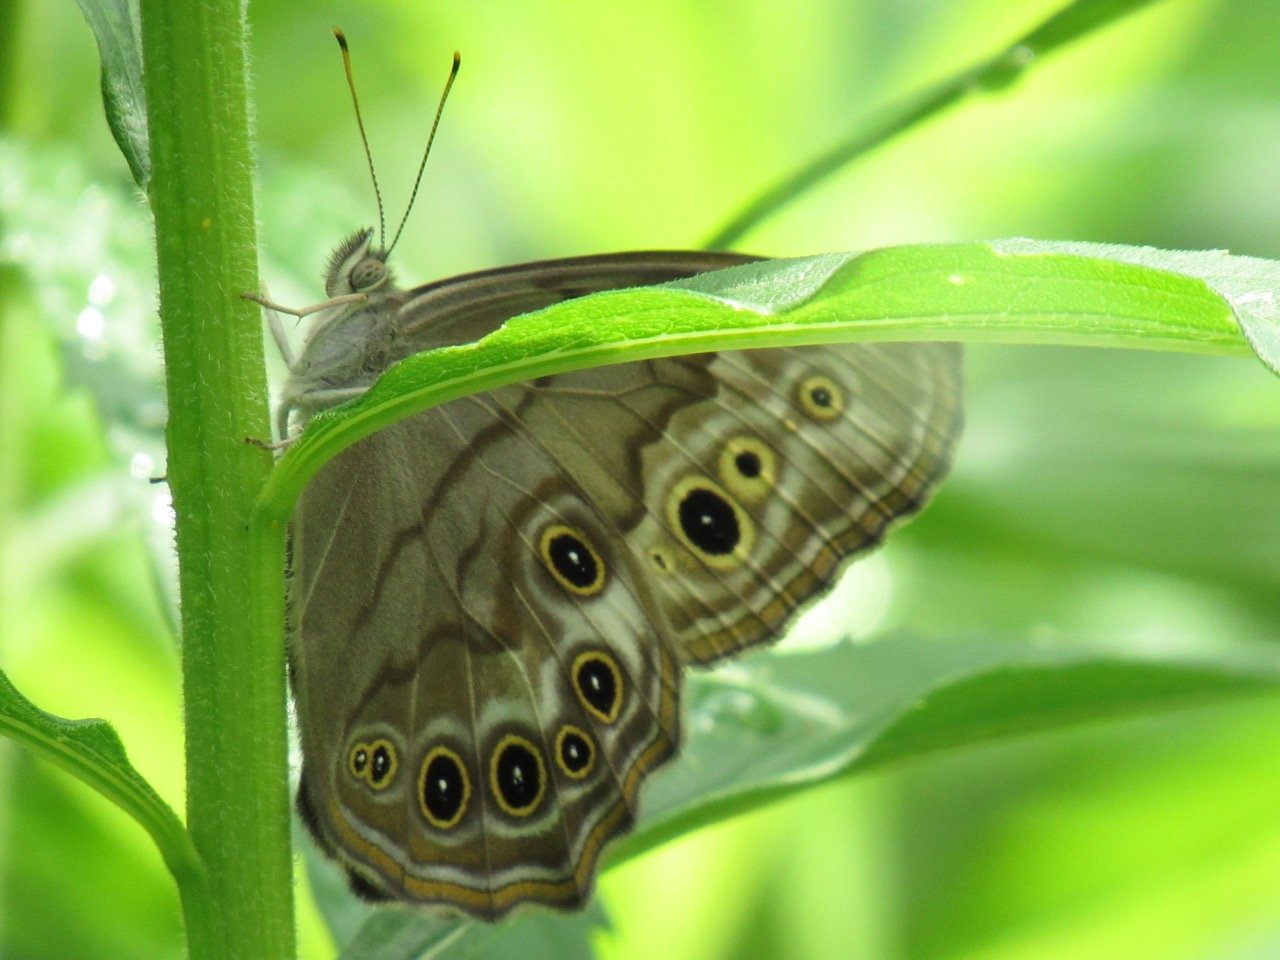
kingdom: Animalia
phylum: Arthropoda
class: Insecta
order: Lepidoptera
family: Nymphalidae
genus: Lethe
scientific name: Lethe anthedon
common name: Northern Pearly-Eye
